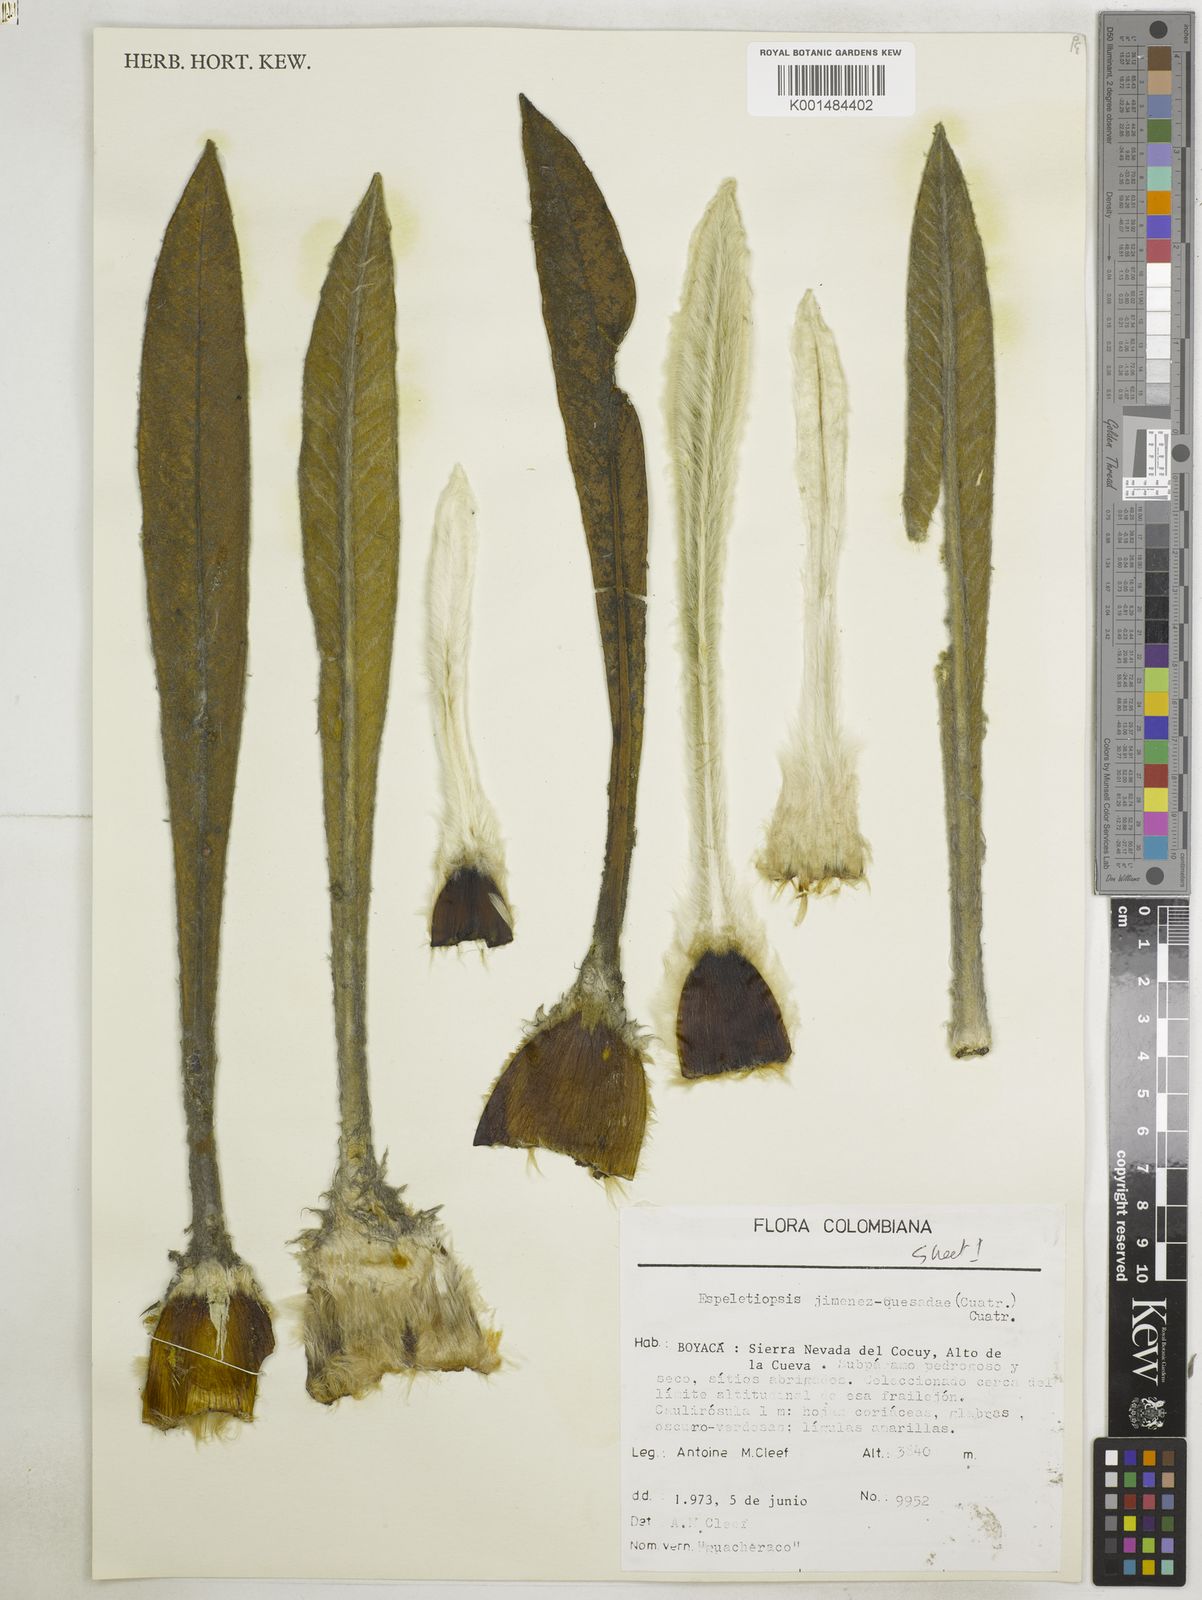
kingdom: Plantae
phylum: Tracheophyta
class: Magnoliopsida
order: Asterales
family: Asteraceae
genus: Espeletia
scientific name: Espeletia jimenez-quesadae
